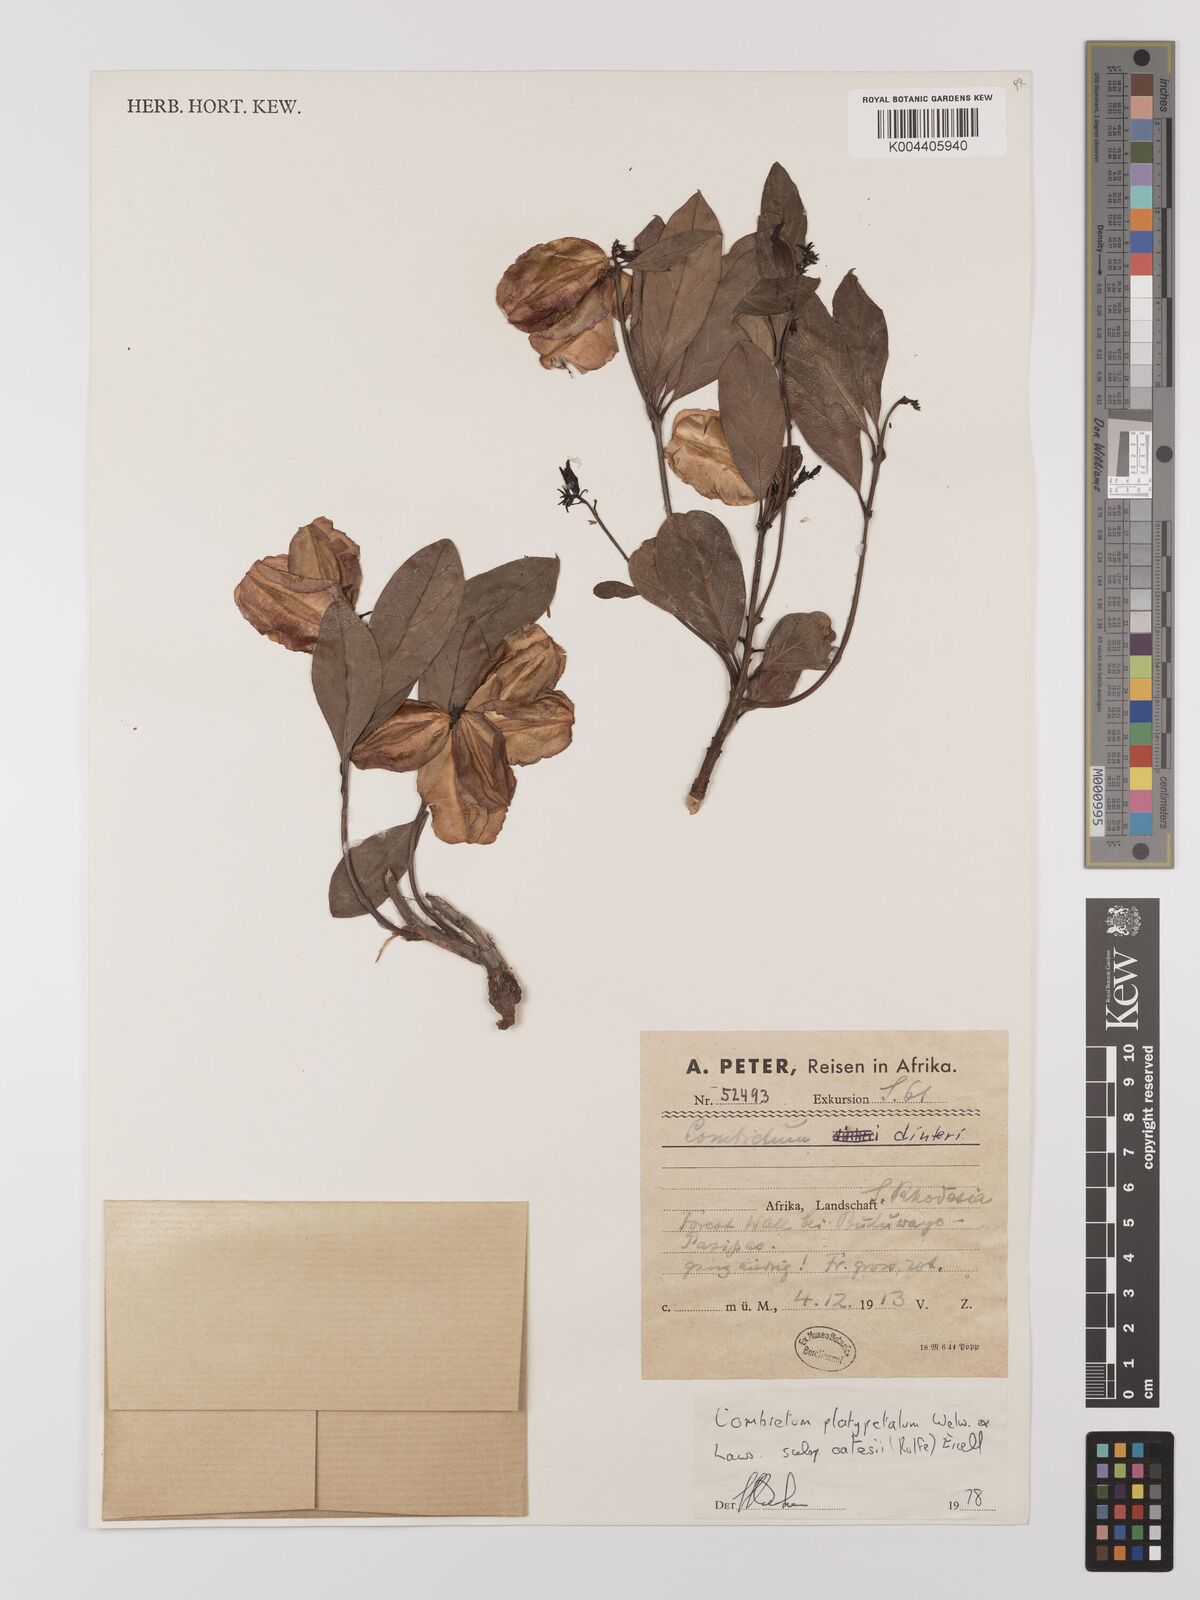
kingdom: Plantae
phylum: Tracheophyta
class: Magnoliopsida
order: Myrtales
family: Combretaceae
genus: Combretum
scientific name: Combretum platypetalum
